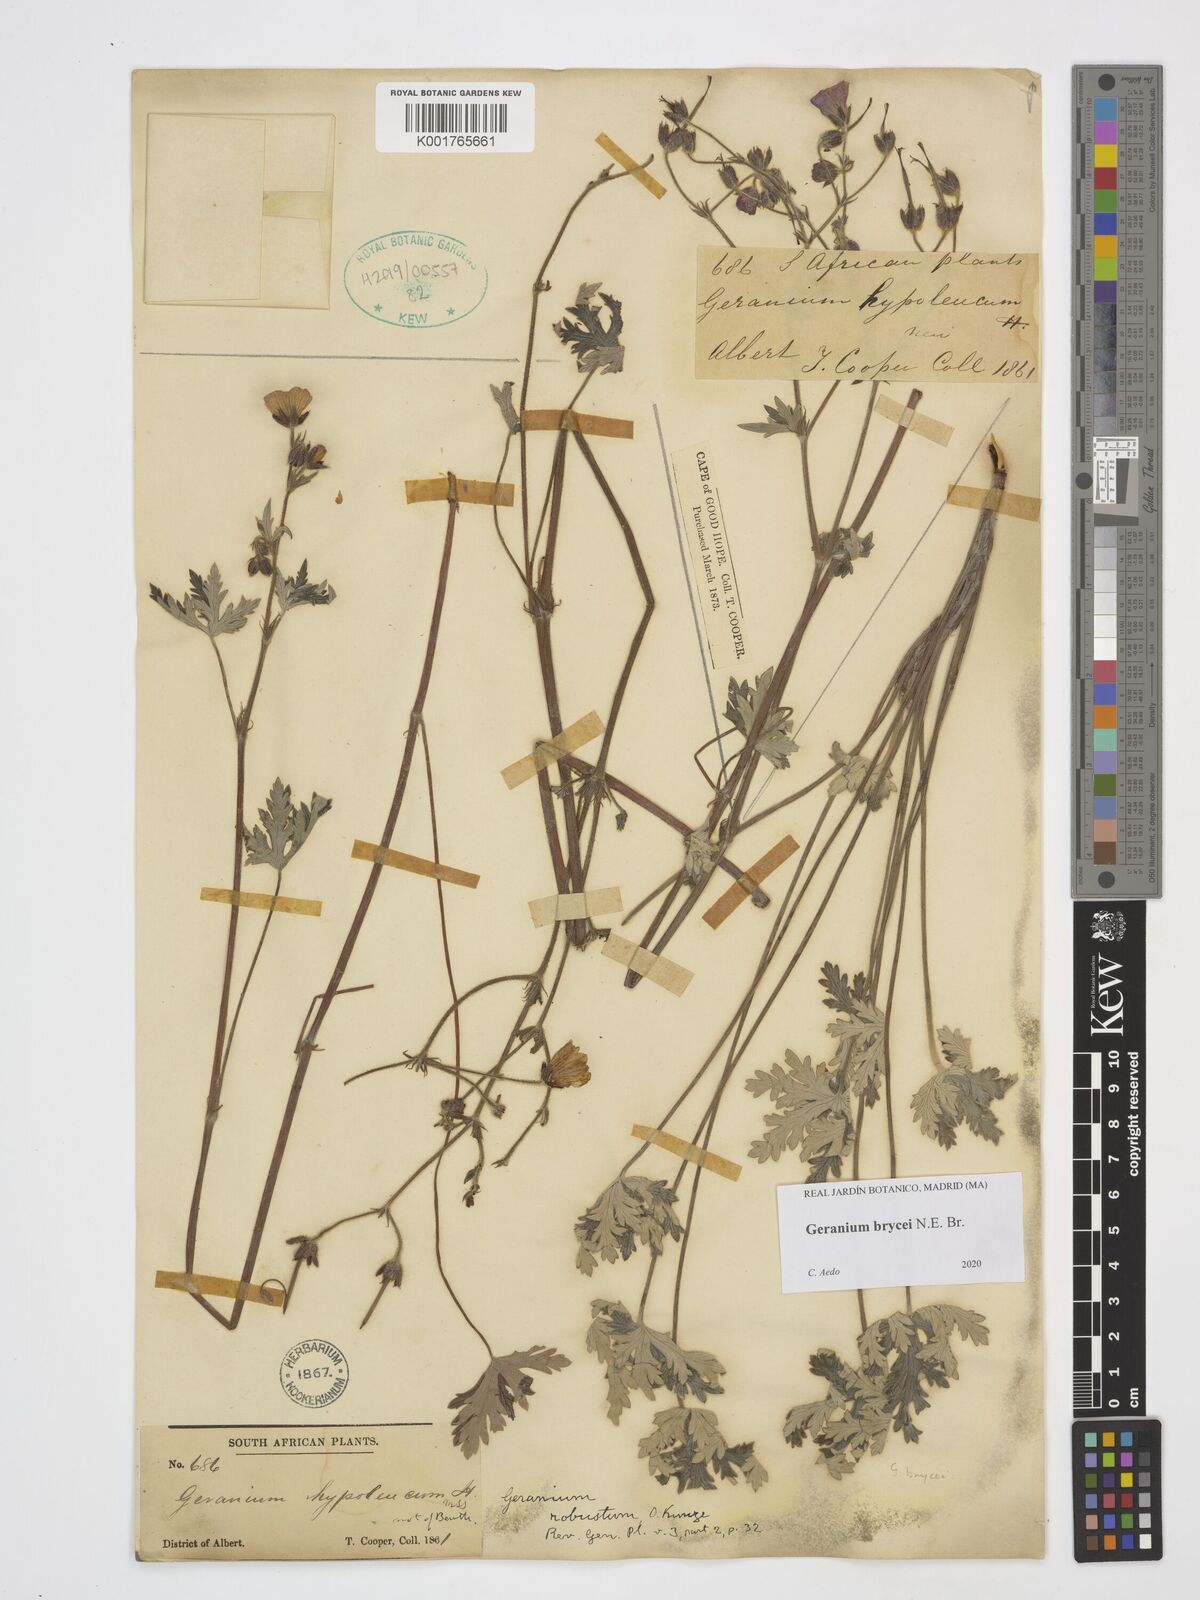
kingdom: Plantae
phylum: Tracheophyta
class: Magnoliopsida
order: Geraniales
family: Geraniaceae
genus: Geranium
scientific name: Geranium brycei
